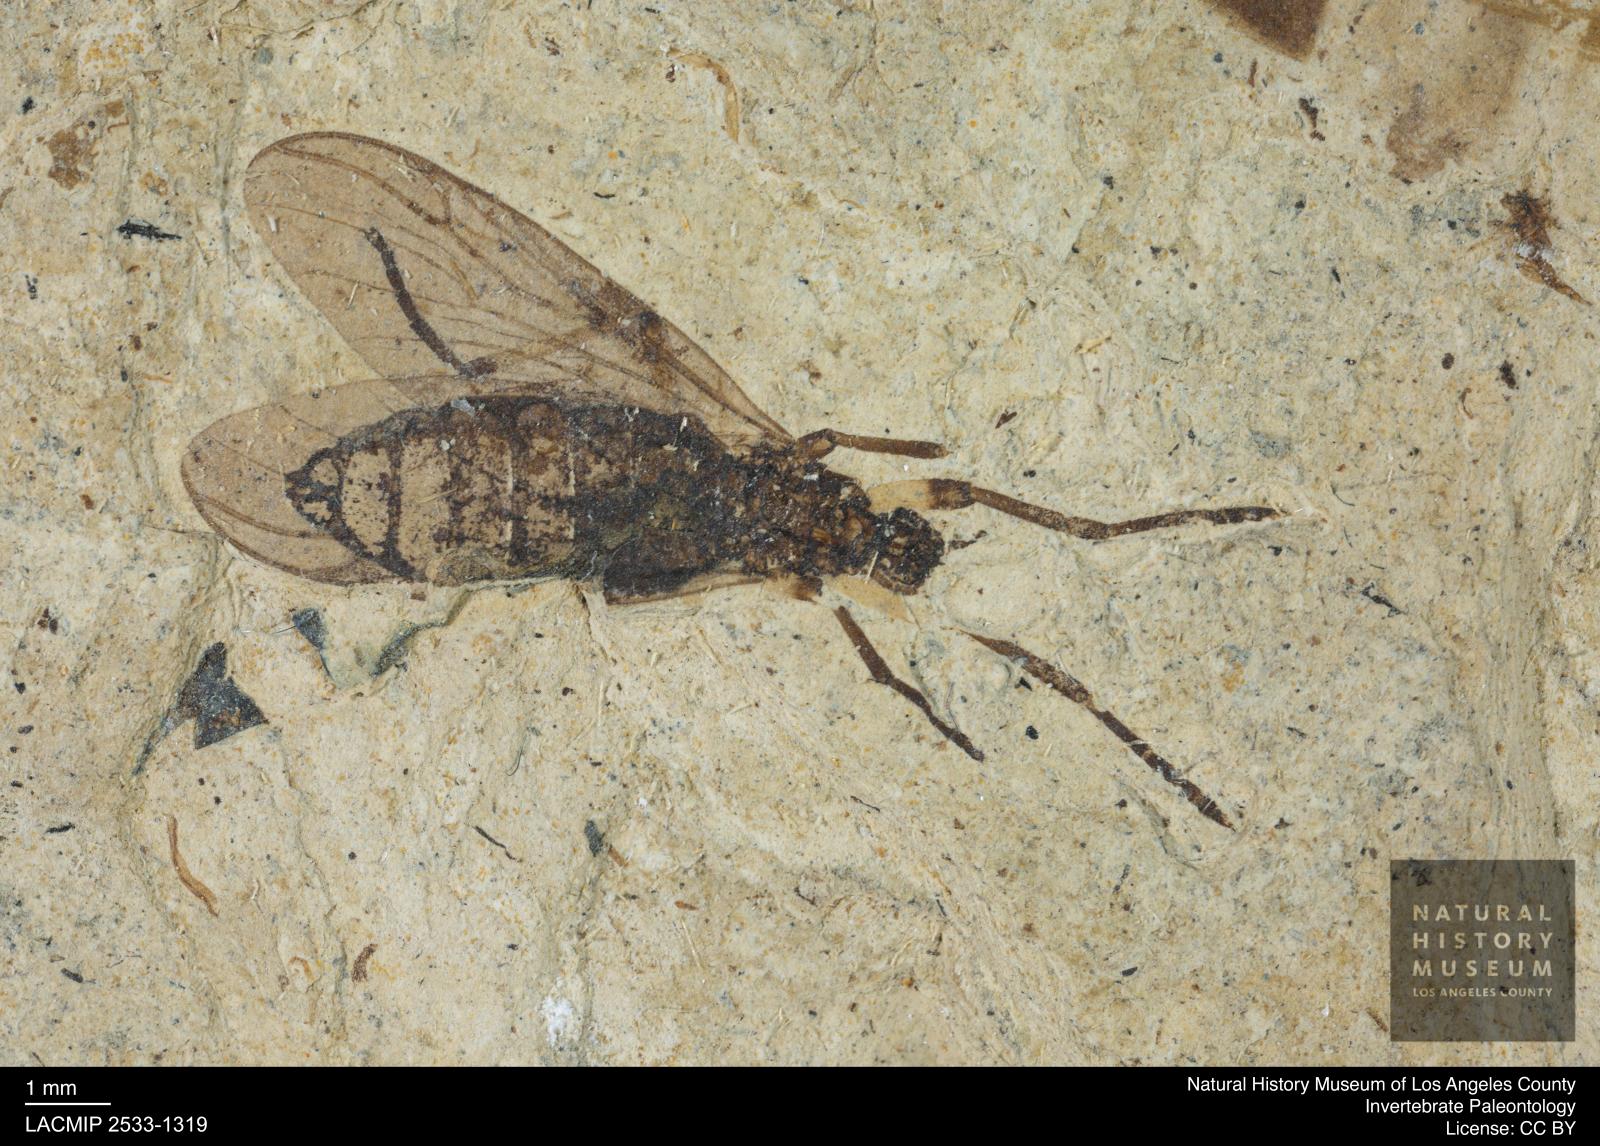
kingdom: Animalia
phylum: Arthropoda
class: Insecta
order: Diptera
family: Bibionidae
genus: Plecia
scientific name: Plecia hypogaea
